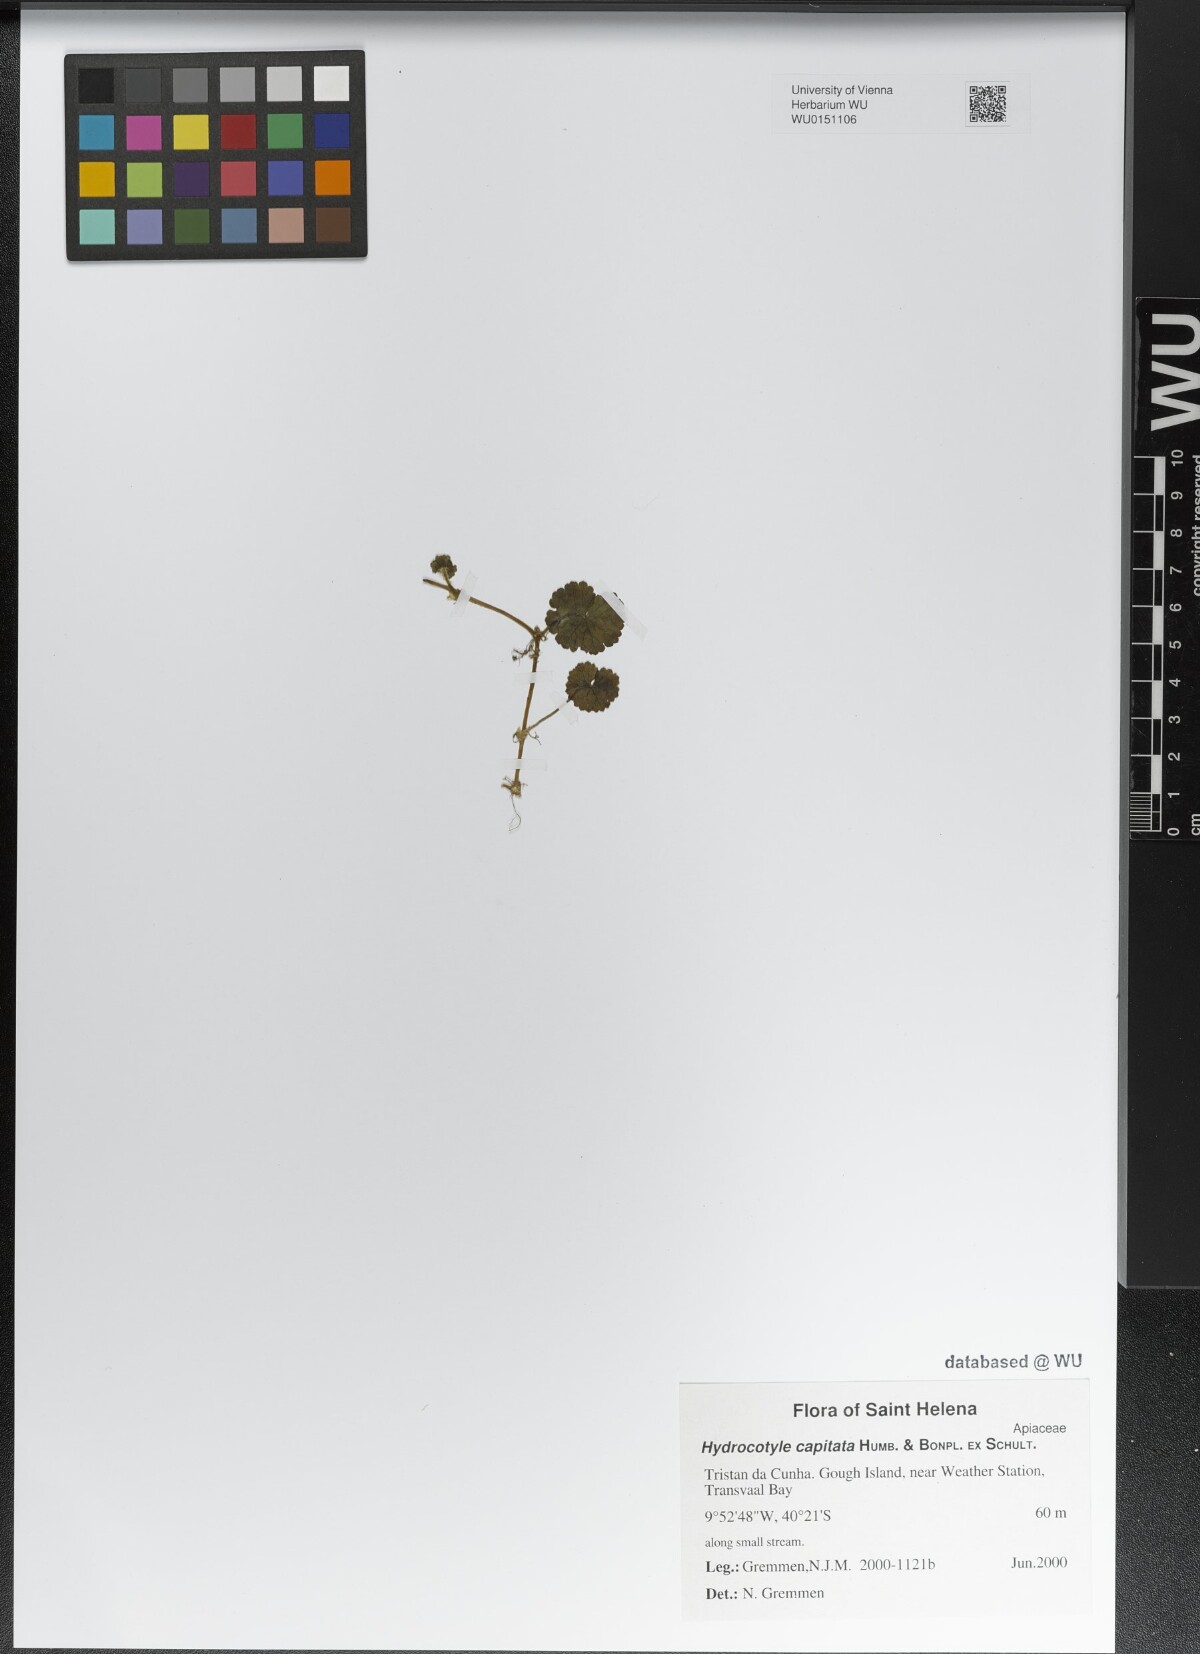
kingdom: Plantae
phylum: Tracheophyta
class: Magnoliopsida
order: Apiales
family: Araliaceae
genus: Hydrocotyle
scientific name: Hydrocotyle bonplandii
